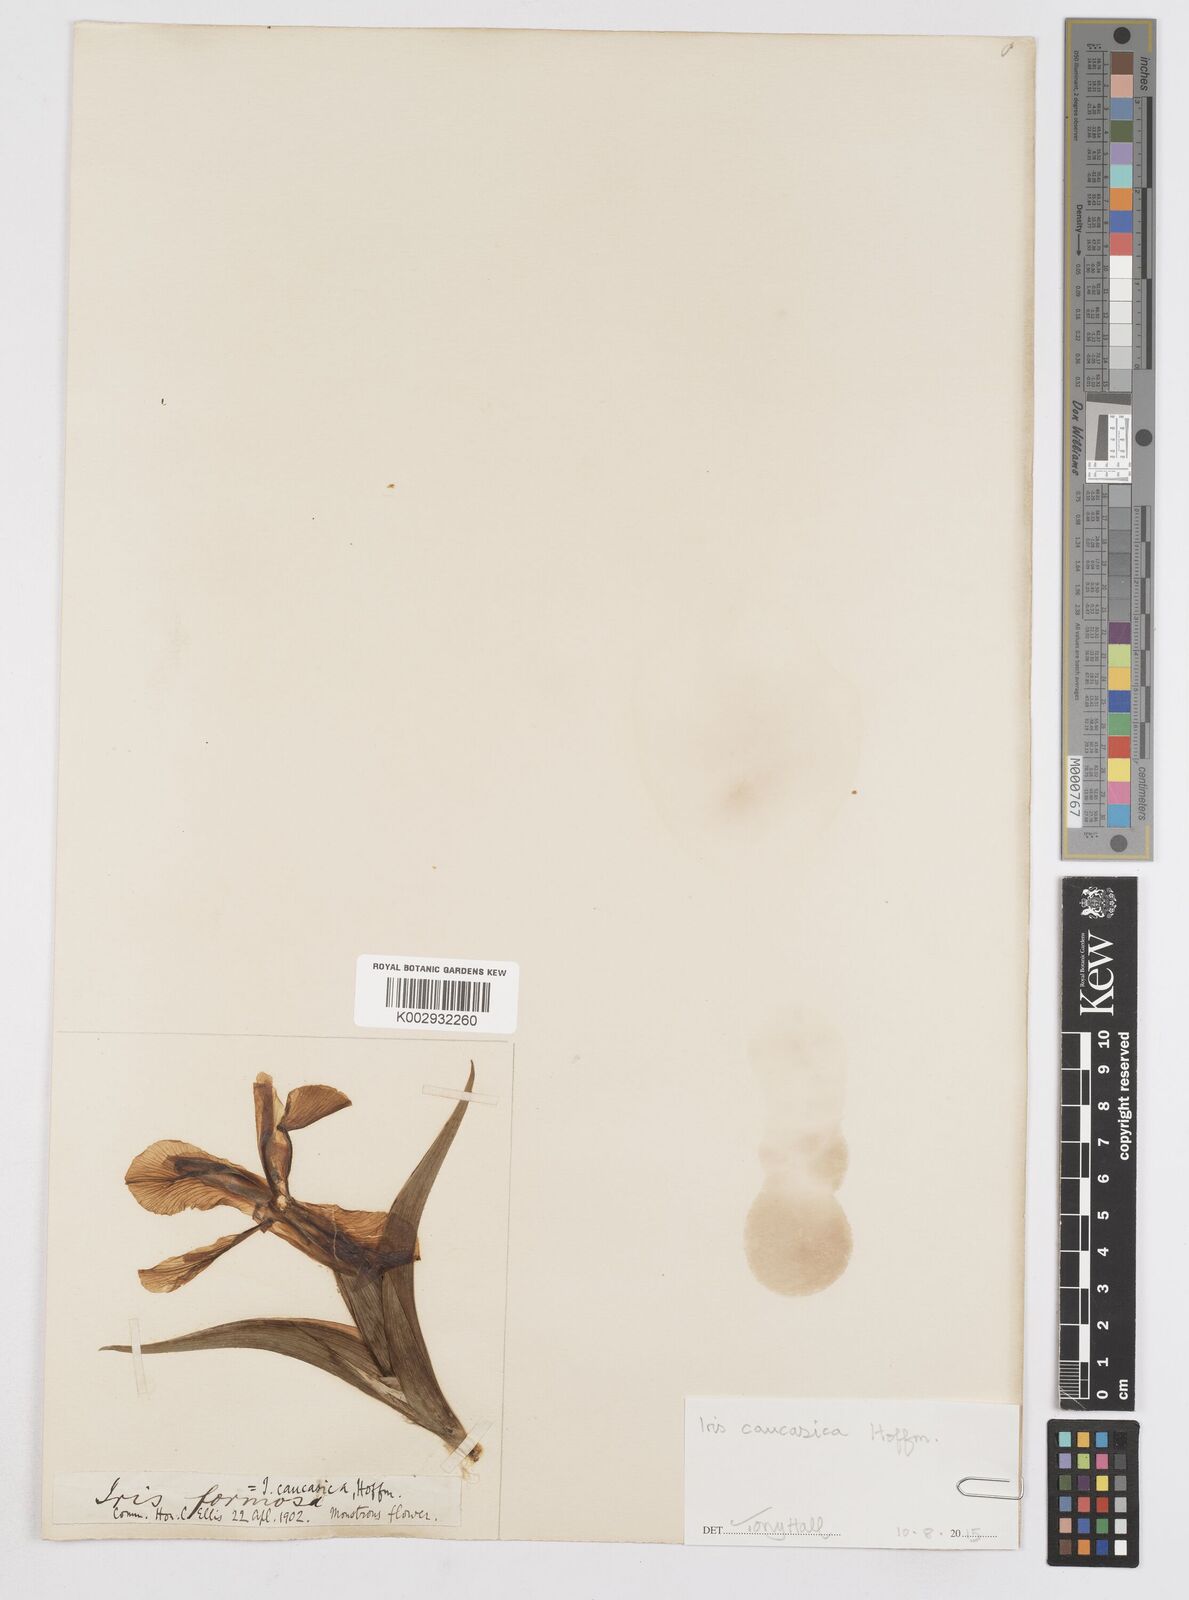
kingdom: Plantae
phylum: Tracheophyta
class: Liliopsida
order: Asparagales
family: Iridaceae
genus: Iris
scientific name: Iris
